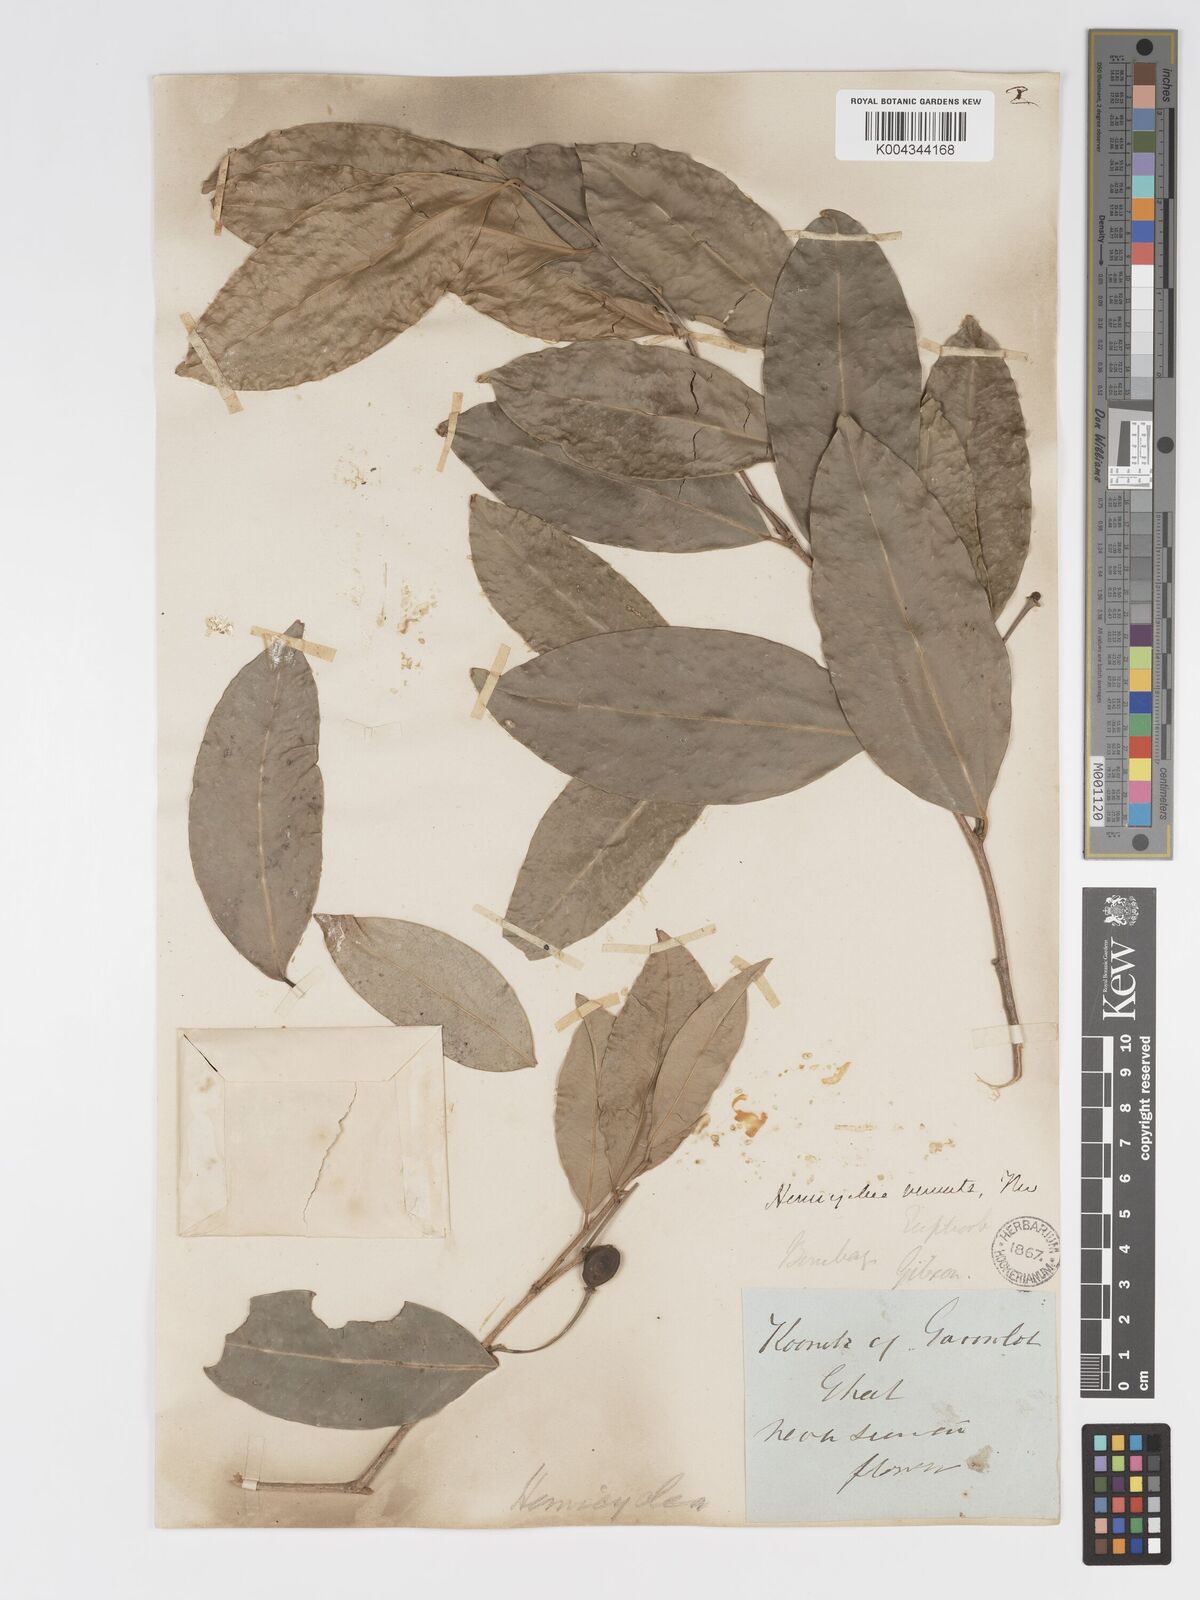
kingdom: Plantae
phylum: Tracheophyta
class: Magnoliopsida
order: Malpighiales
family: Putranjivaceae
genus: Drypetes
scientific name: Drypetes venusta
